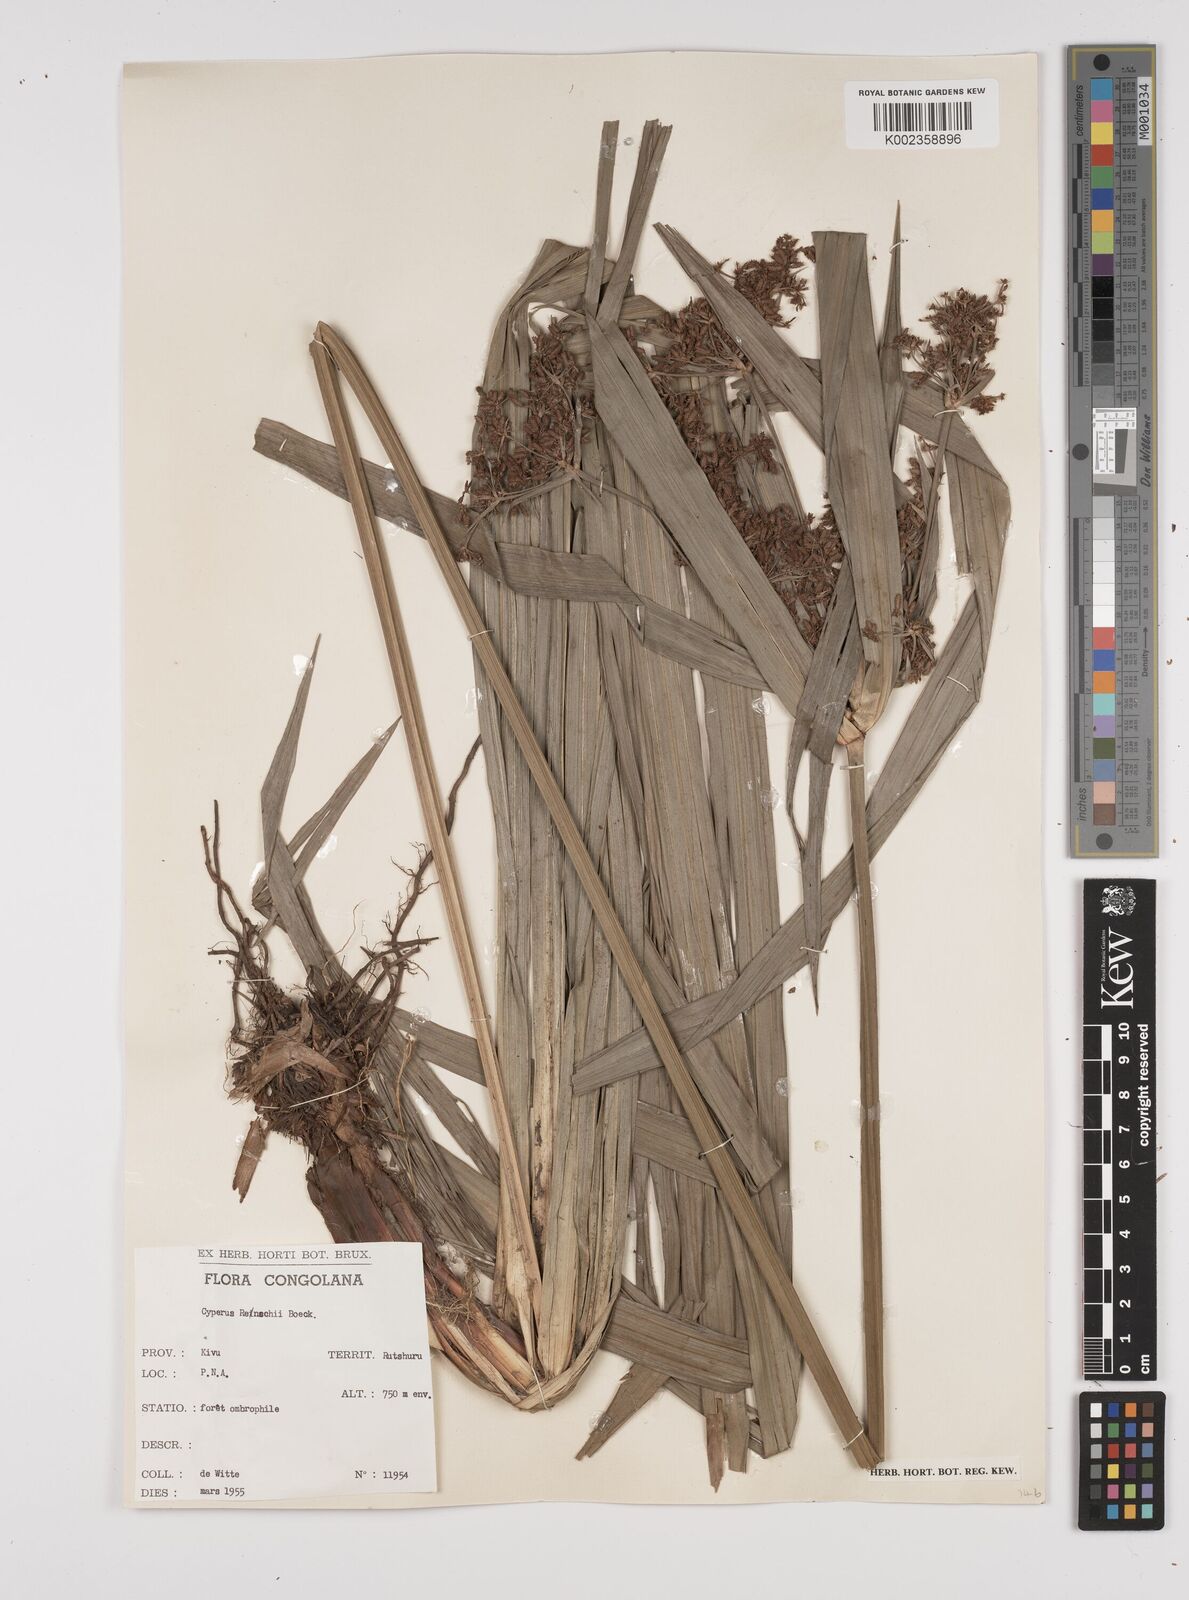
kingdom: Plantae
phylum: Tracheophyta
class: Liliopsida
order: Poales
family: Cyperaceae
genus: Cyperus
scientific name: Cyperus renschii
